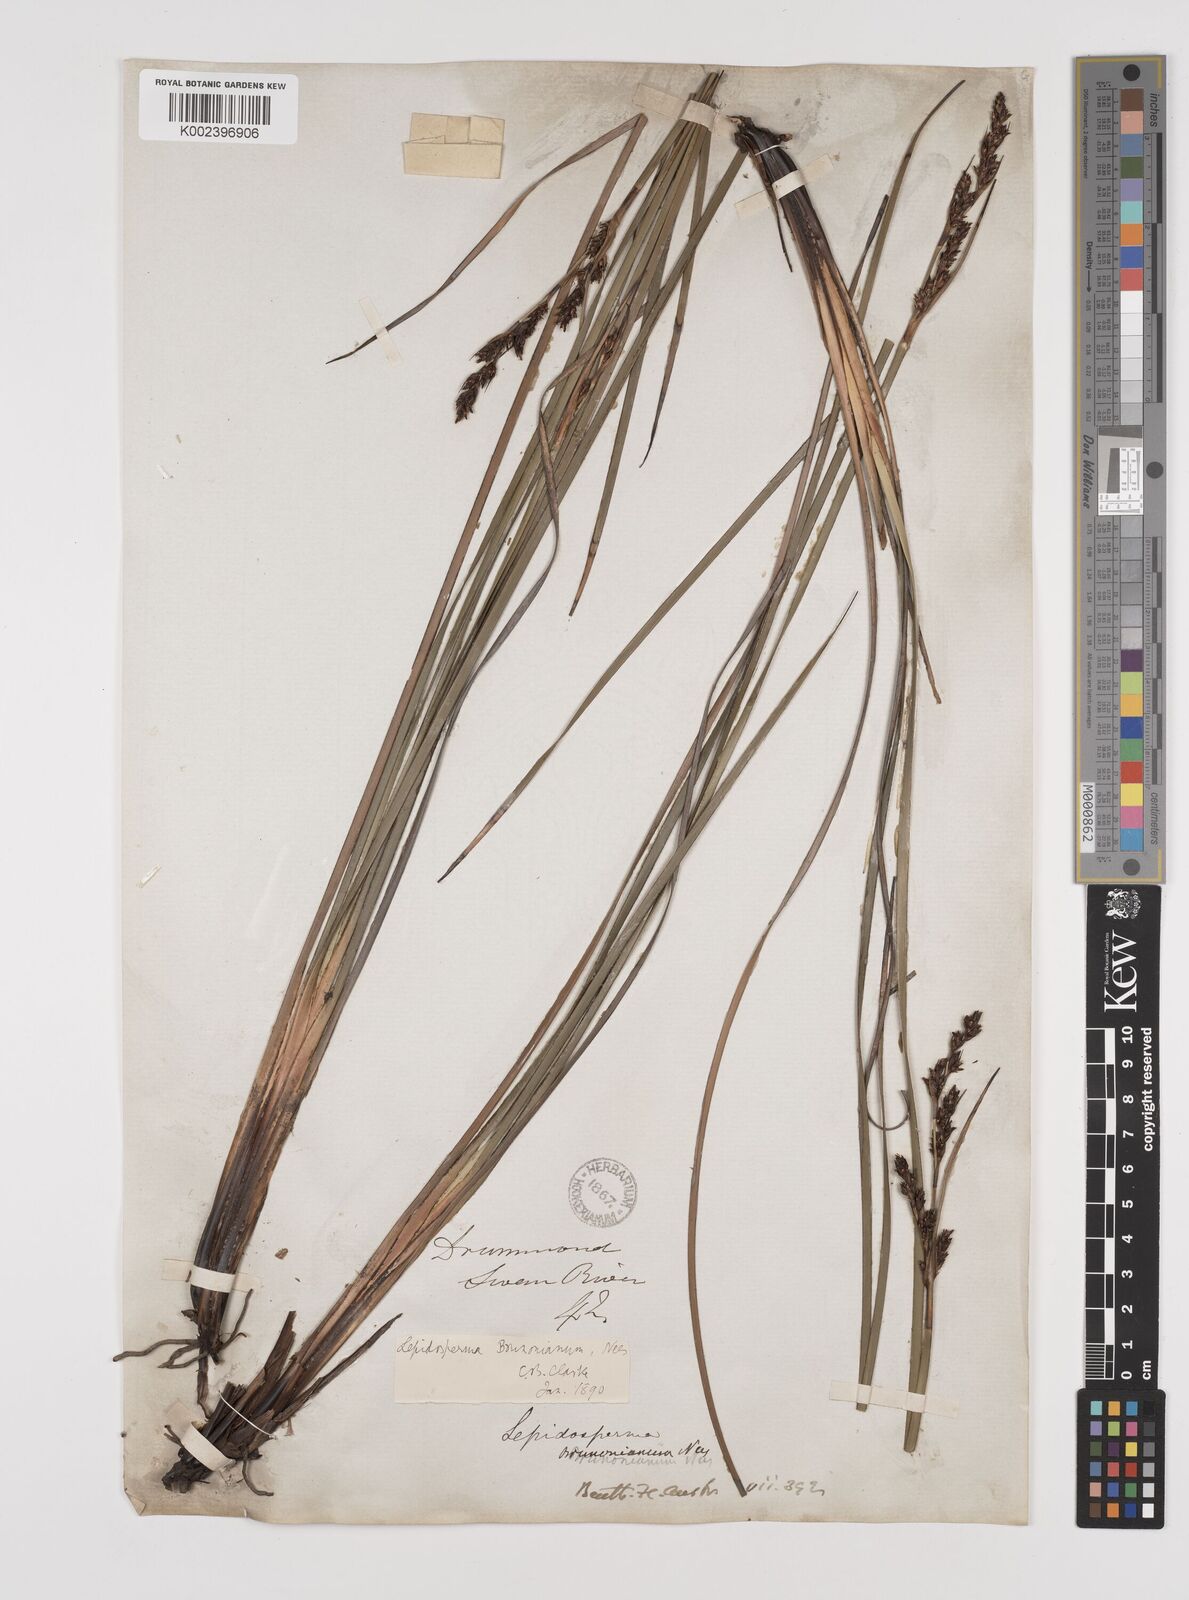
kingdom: Plantae
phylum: Tracheophyta
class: Liliopsida
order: Poales
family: Cyperaceae
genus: Lepidosperma
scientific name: Lepidosperma sieberi
